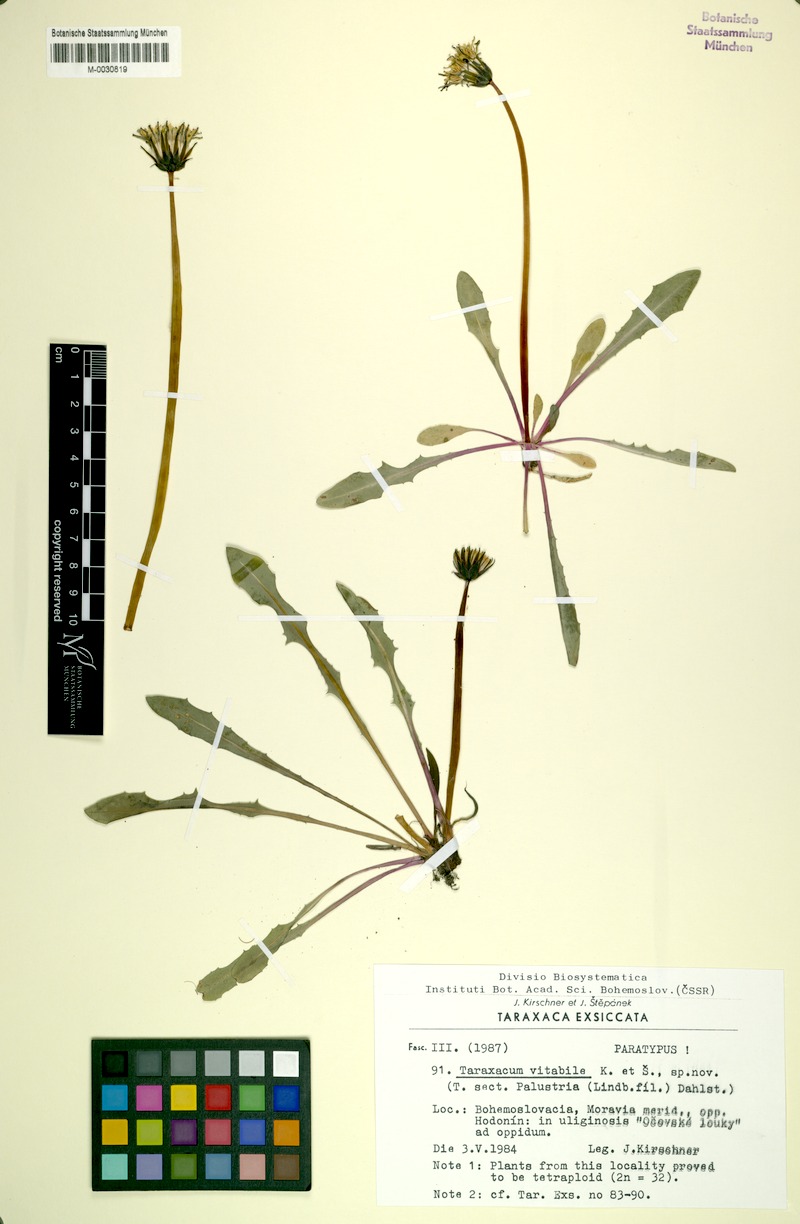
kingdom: Plantae
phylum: Tracheophyta
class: Magnoliopsida
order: Asterales
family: Asteraceae
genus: Taraxacum
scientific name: Taraxacum vindobonense
